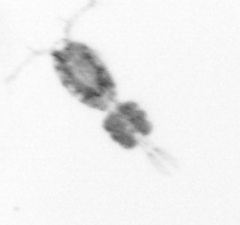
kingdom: Animalia
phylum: Arthropoda
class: Copepoda
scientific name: Copepoda
